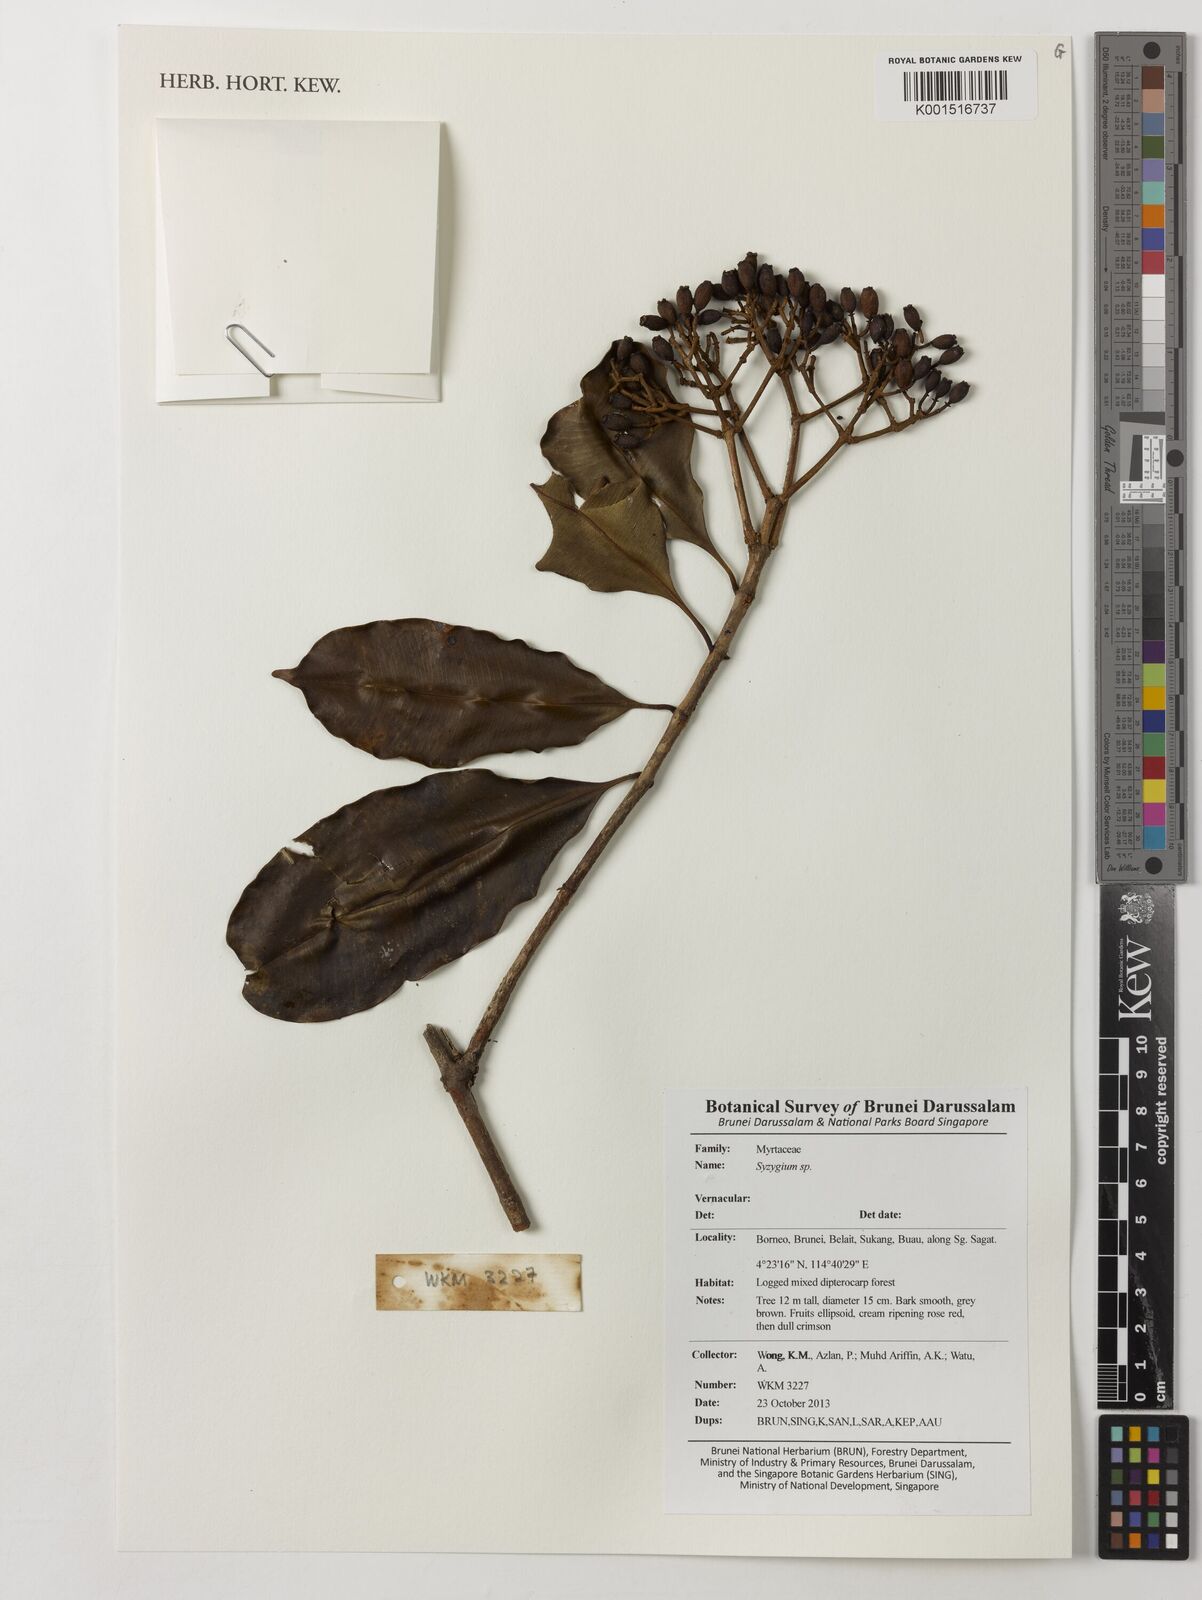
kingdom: Plantae
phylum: Tracheophyta
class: Magnoliopsida
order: Myrtales
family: Myrtaceae
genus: Syzygium
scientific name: Syzygium
